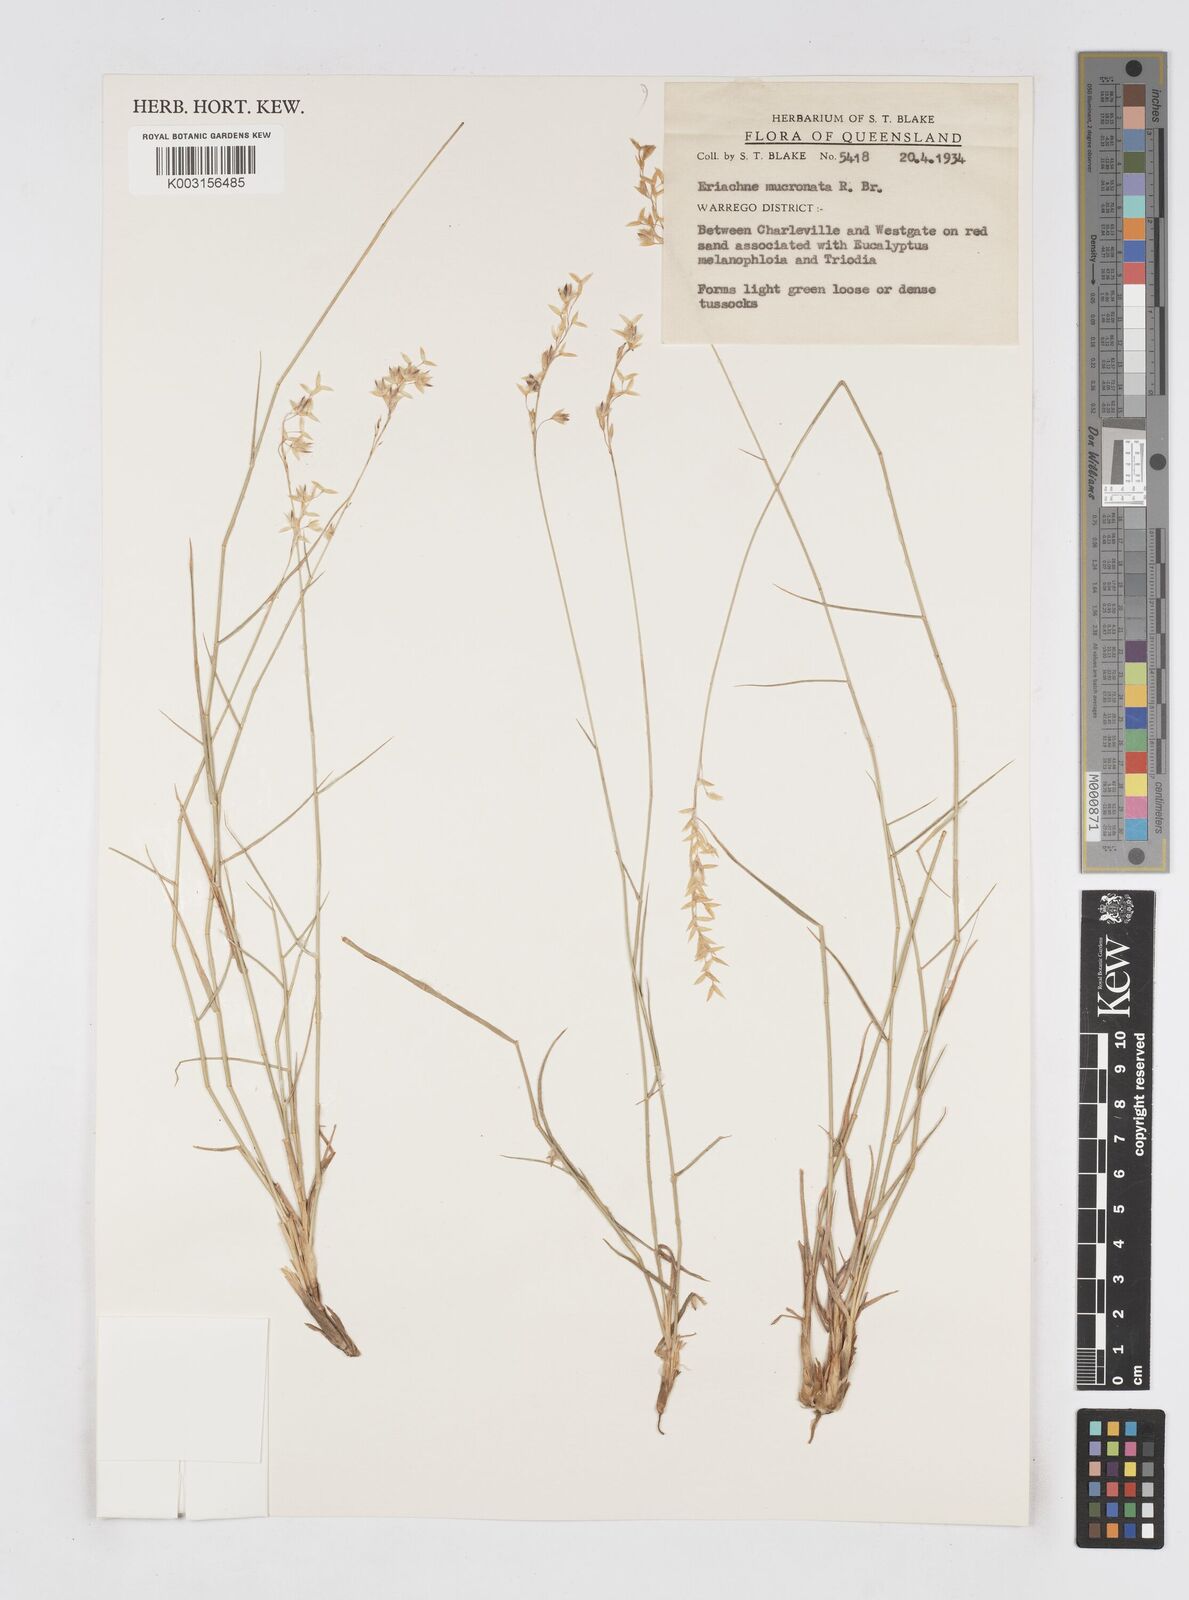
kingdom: Plantae
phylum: Tracheophyta
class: Liliopsida
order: Poales
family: Poaceae
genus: Eriachne
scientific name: Eriachne mucronata
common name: Mountain wanderrie grass
